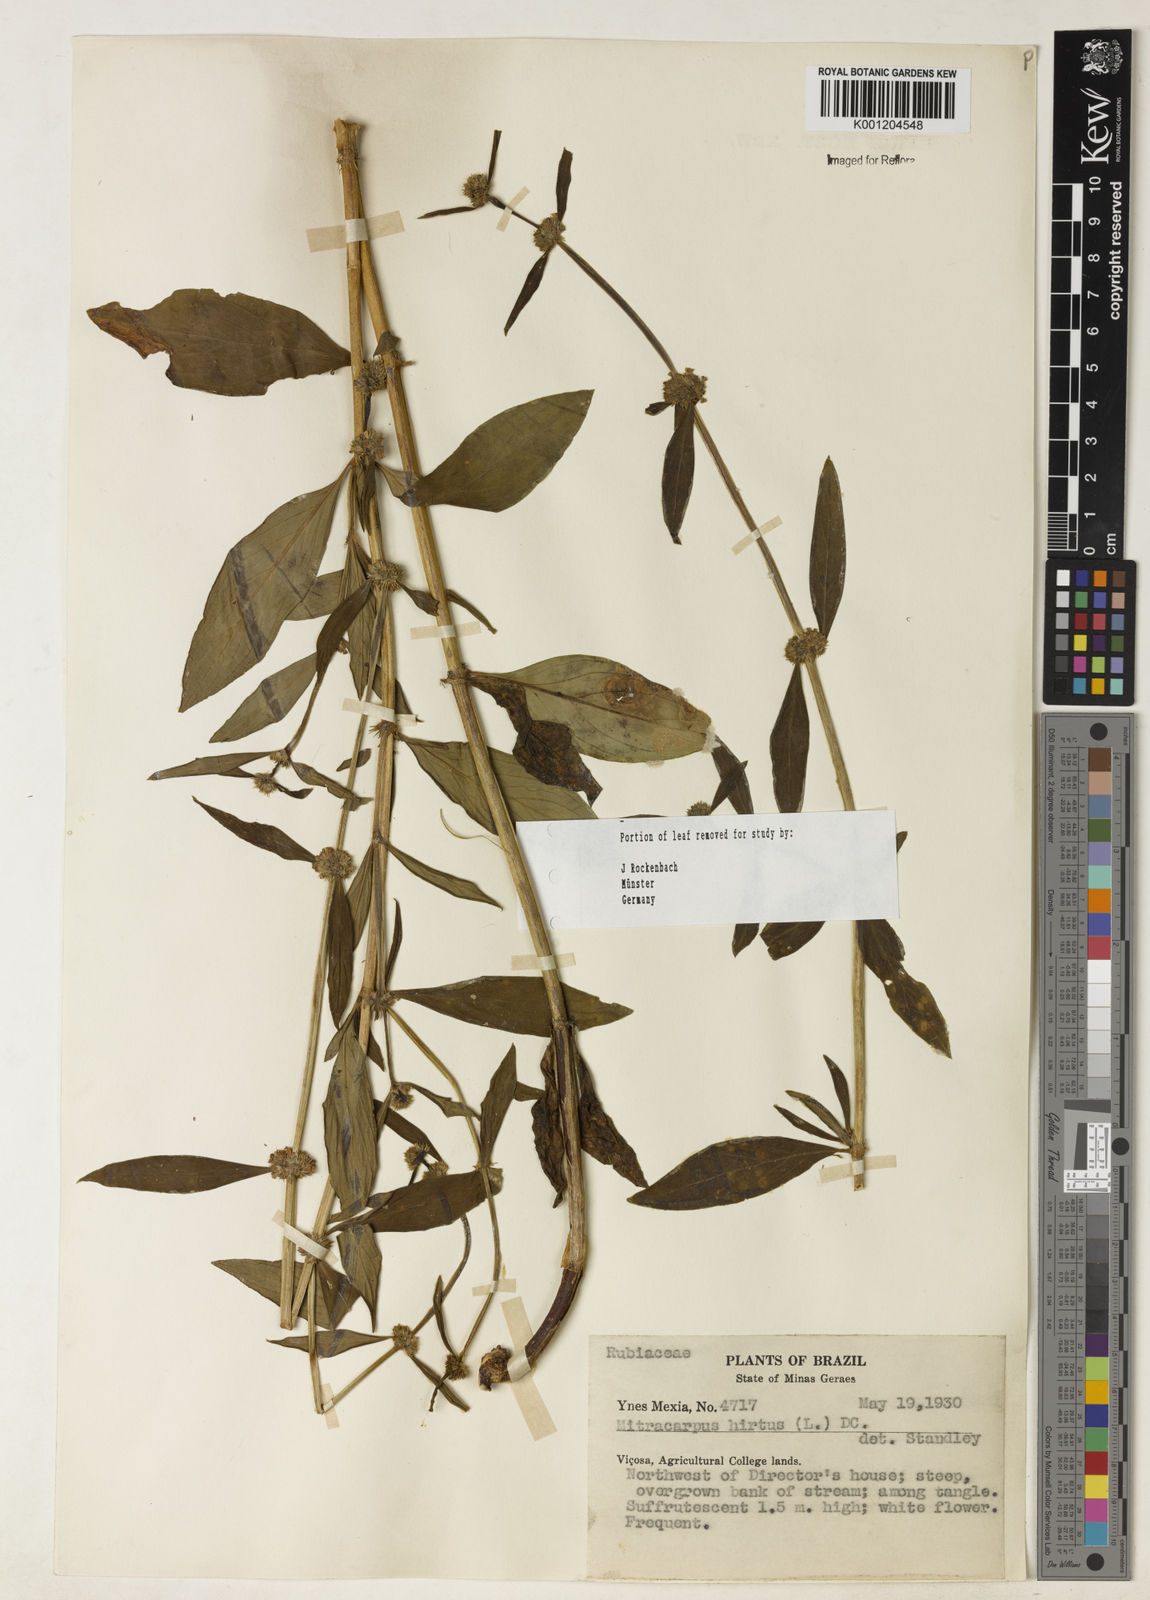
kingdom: Plantae
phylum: Tracheophyta
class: Magnoliopsida
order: Gentianales
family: Rubiaceae
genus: Mitracarpus
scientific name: Mitracarpus
